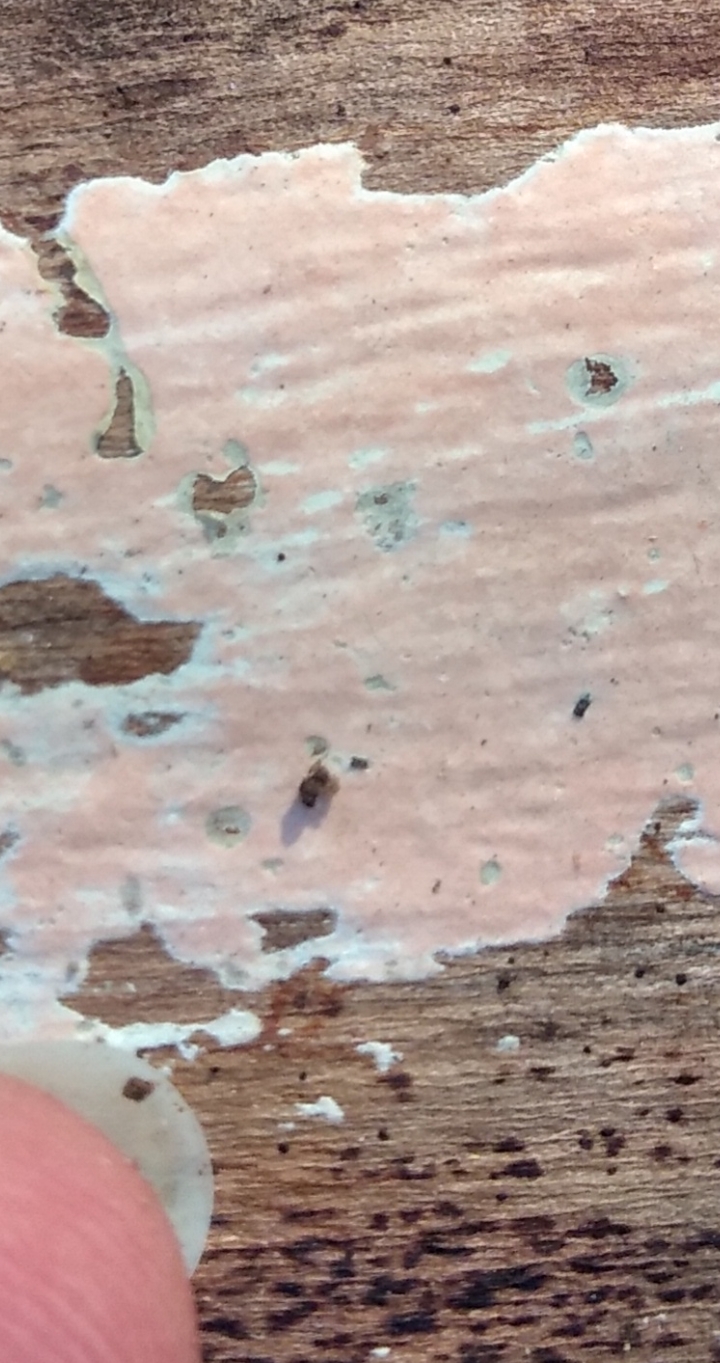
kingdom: Fungi
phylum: Basidiomycota
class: Agaricomycetes
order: Russulales
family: Peniophoraceae
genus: Peniophora
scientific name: Peniophora incarnata
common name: laksefarvet voksskind
